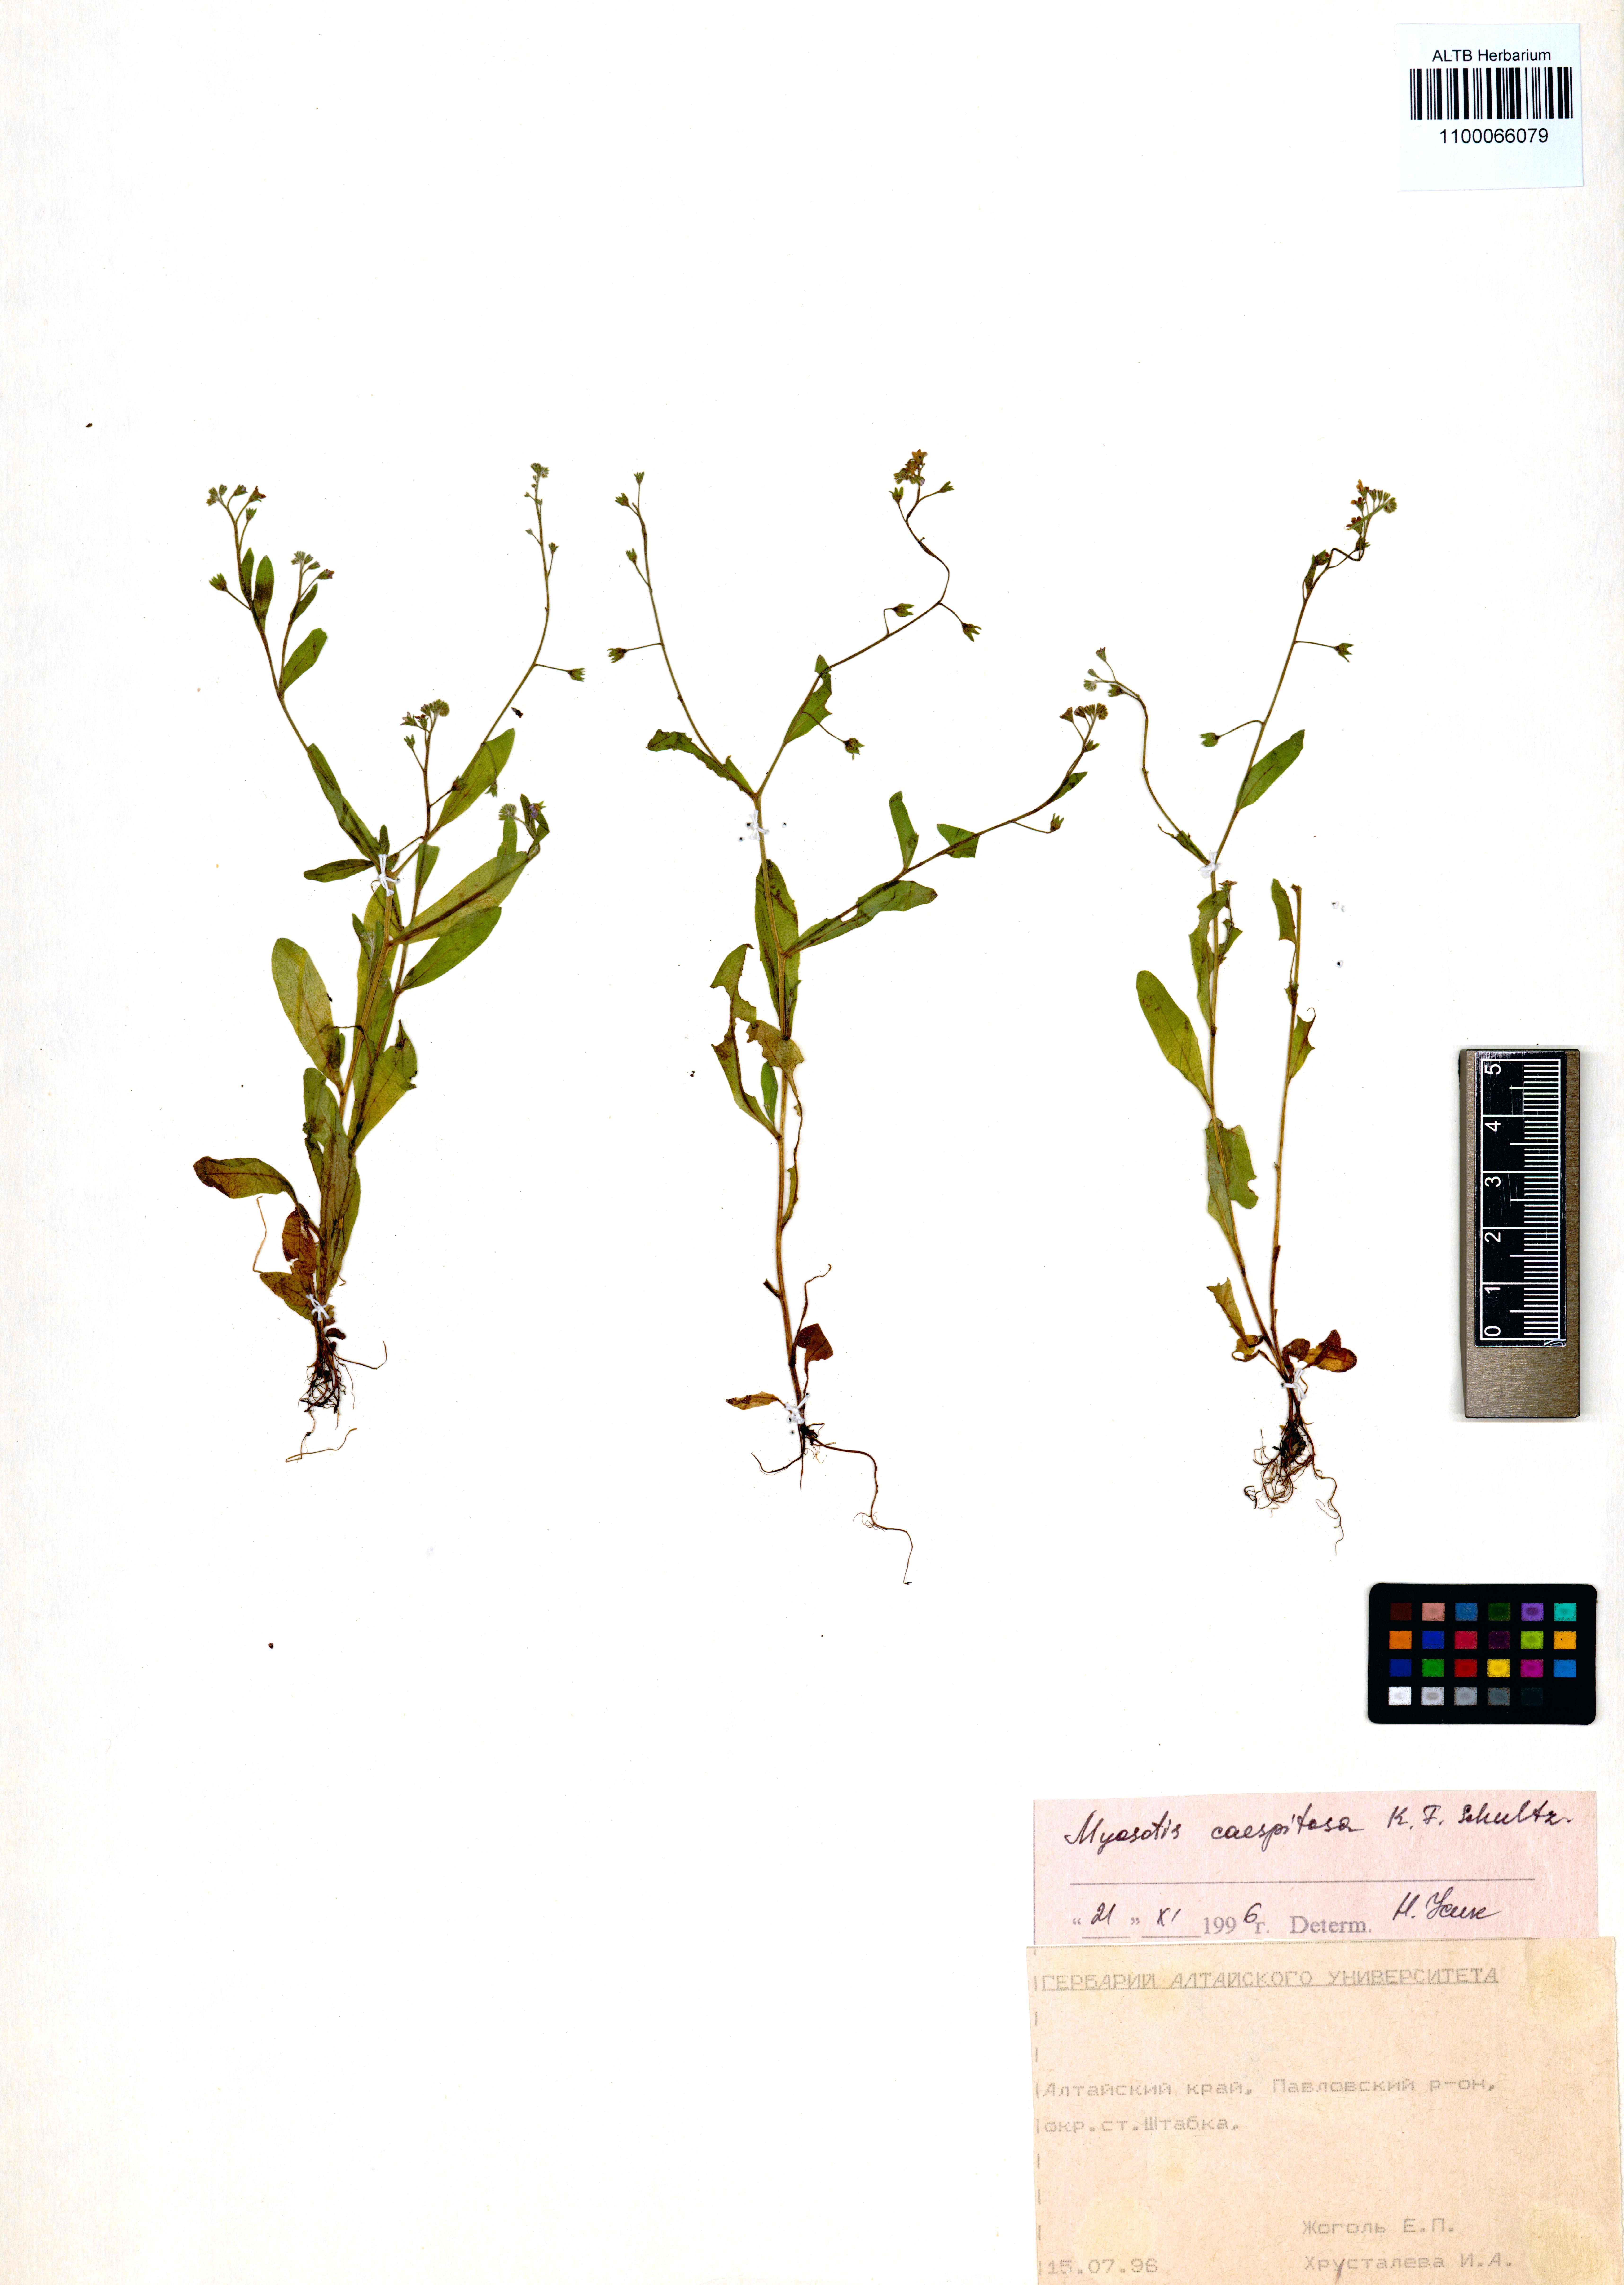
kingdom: Plantae
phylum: Tracheophyta
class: Magnoliopsida
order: Boraginales
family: Boraginaceae
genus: Myosotis
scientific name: Myosotis laxa
